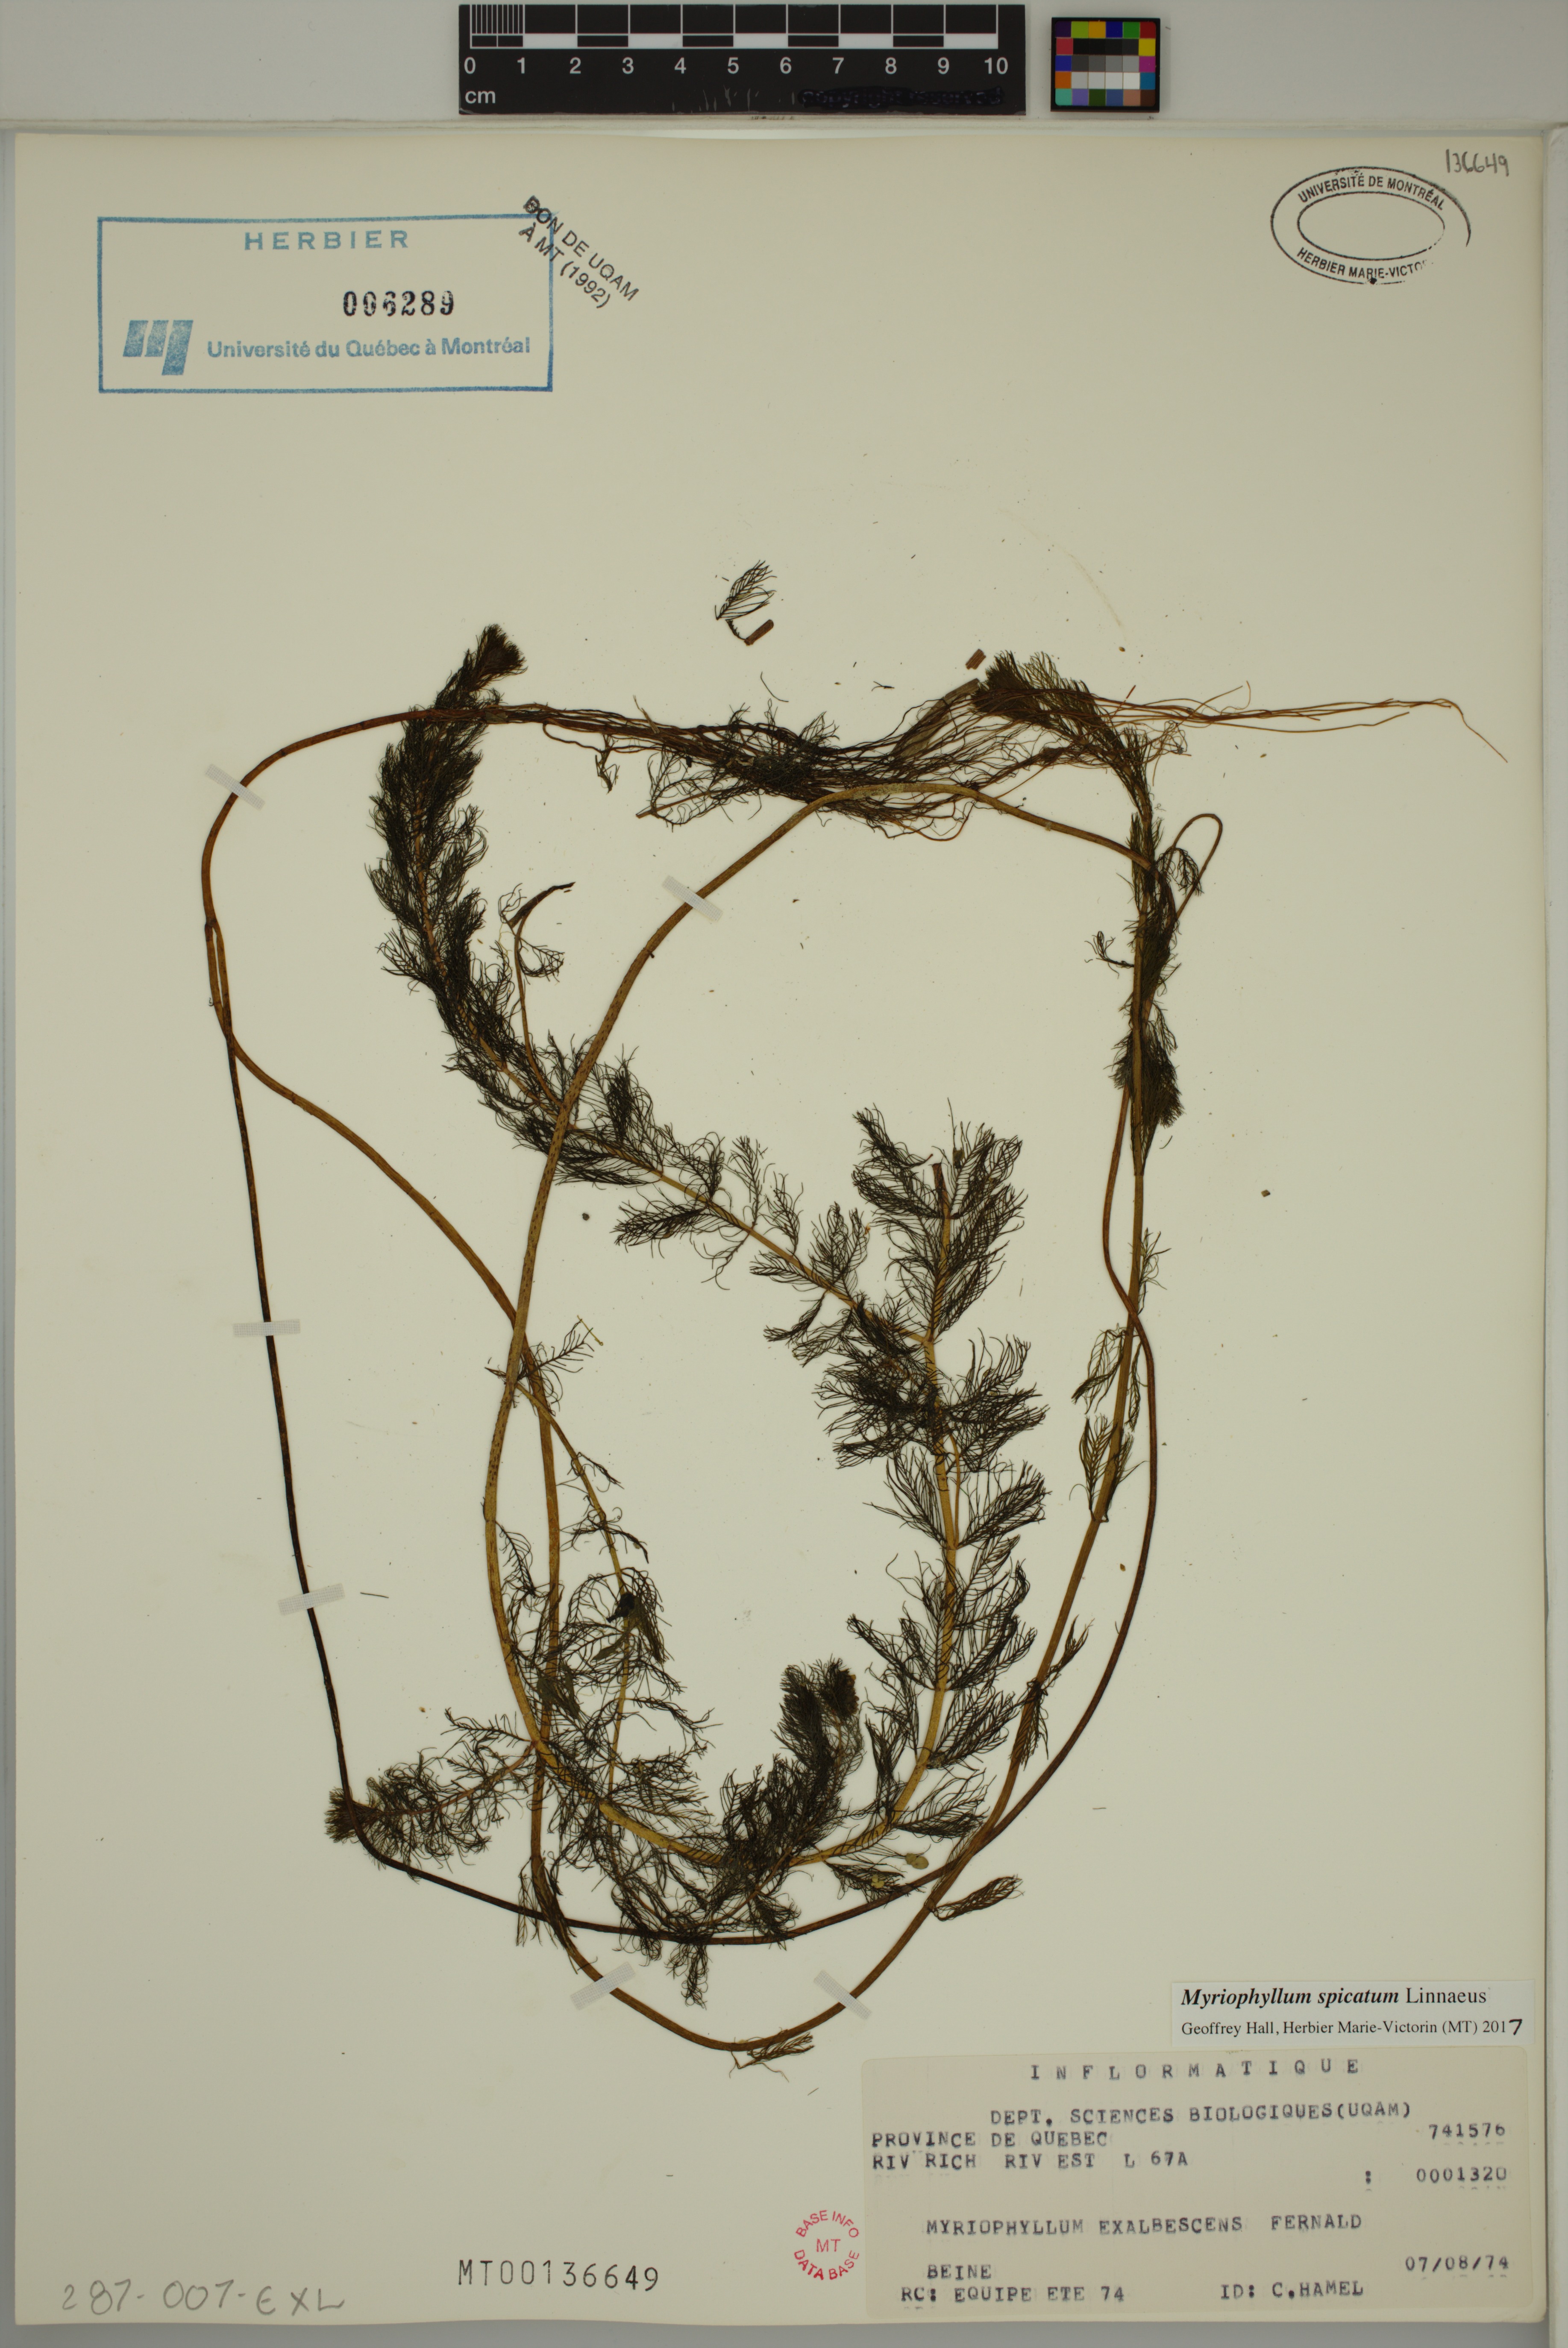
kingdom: Plantae
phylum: Tracheophyta
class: Magnoliopsida
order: Saxifragales
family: Haloragaceae
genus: Myriophyllum
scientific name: Myriophyllum spicatum
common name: Spiked water-milfoil
